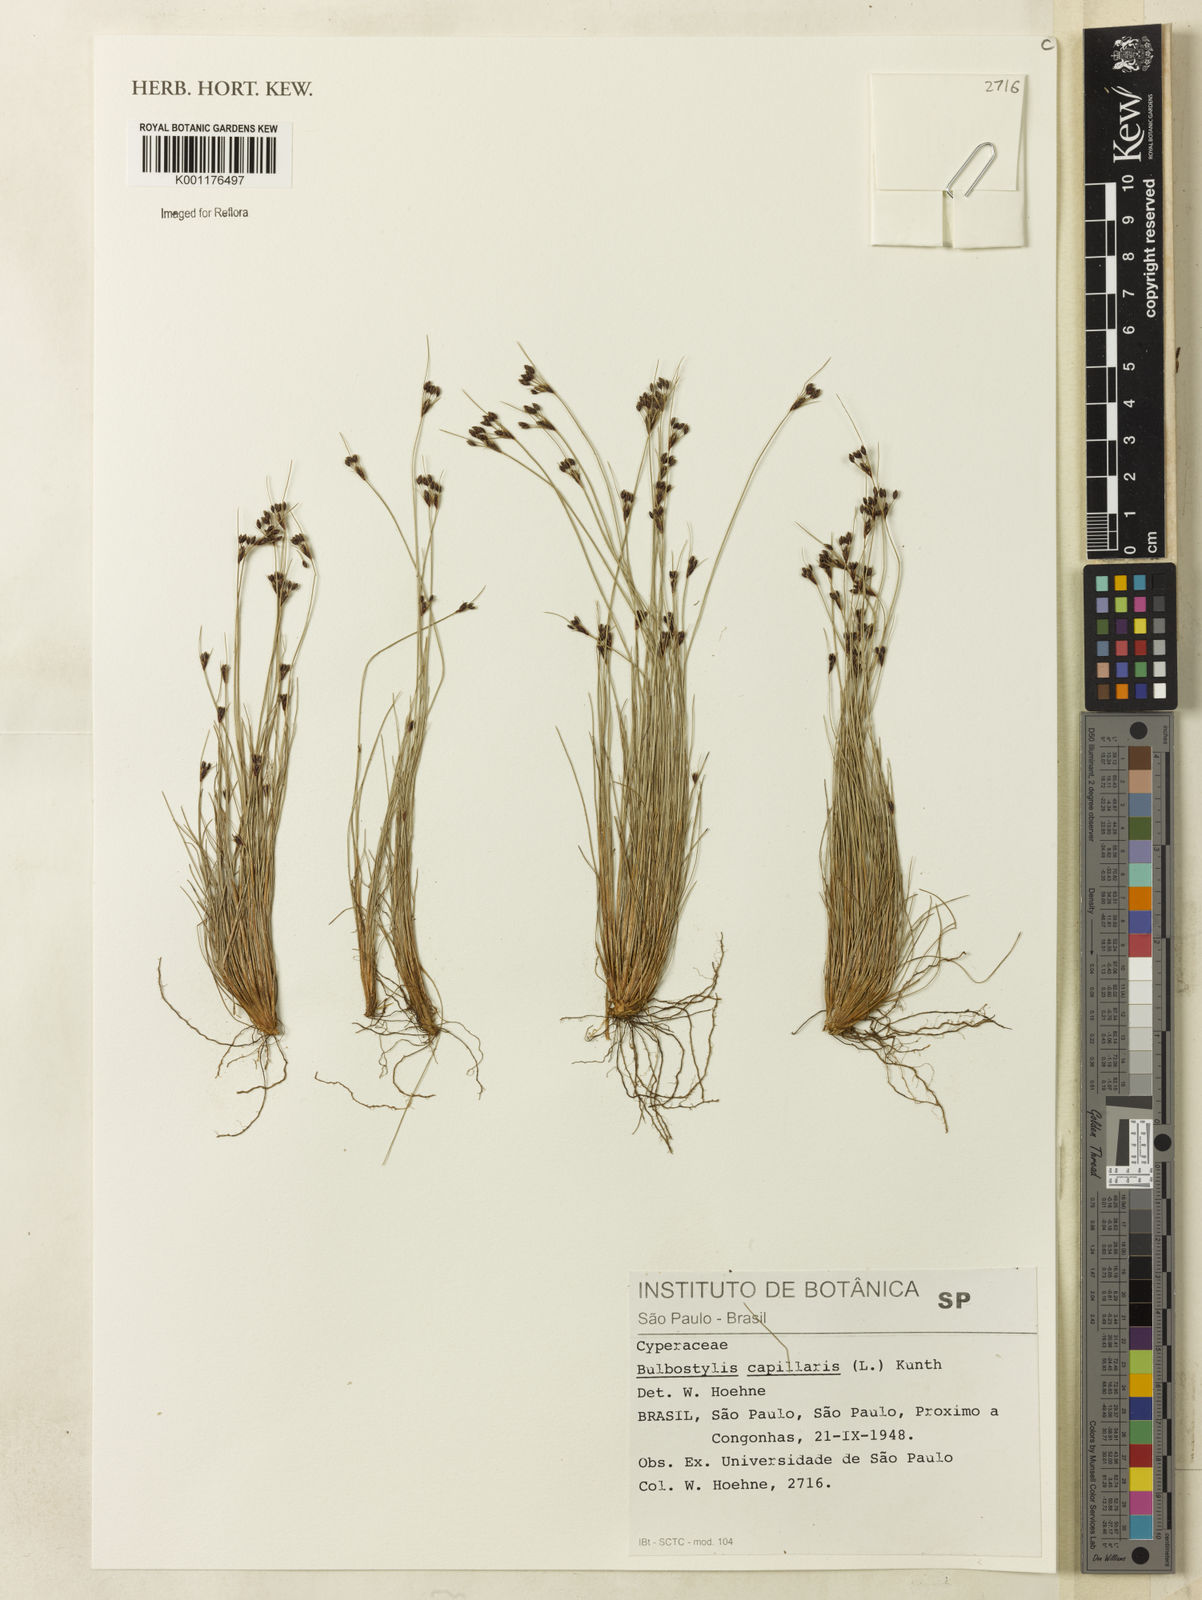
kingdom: Plantae
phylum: Tracheophyta
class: Liliopsida
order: Poales
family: Cyperaceae
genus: Bulbostylis
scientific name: Bulbostylis capillaris
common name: Densetuft hairsedge
